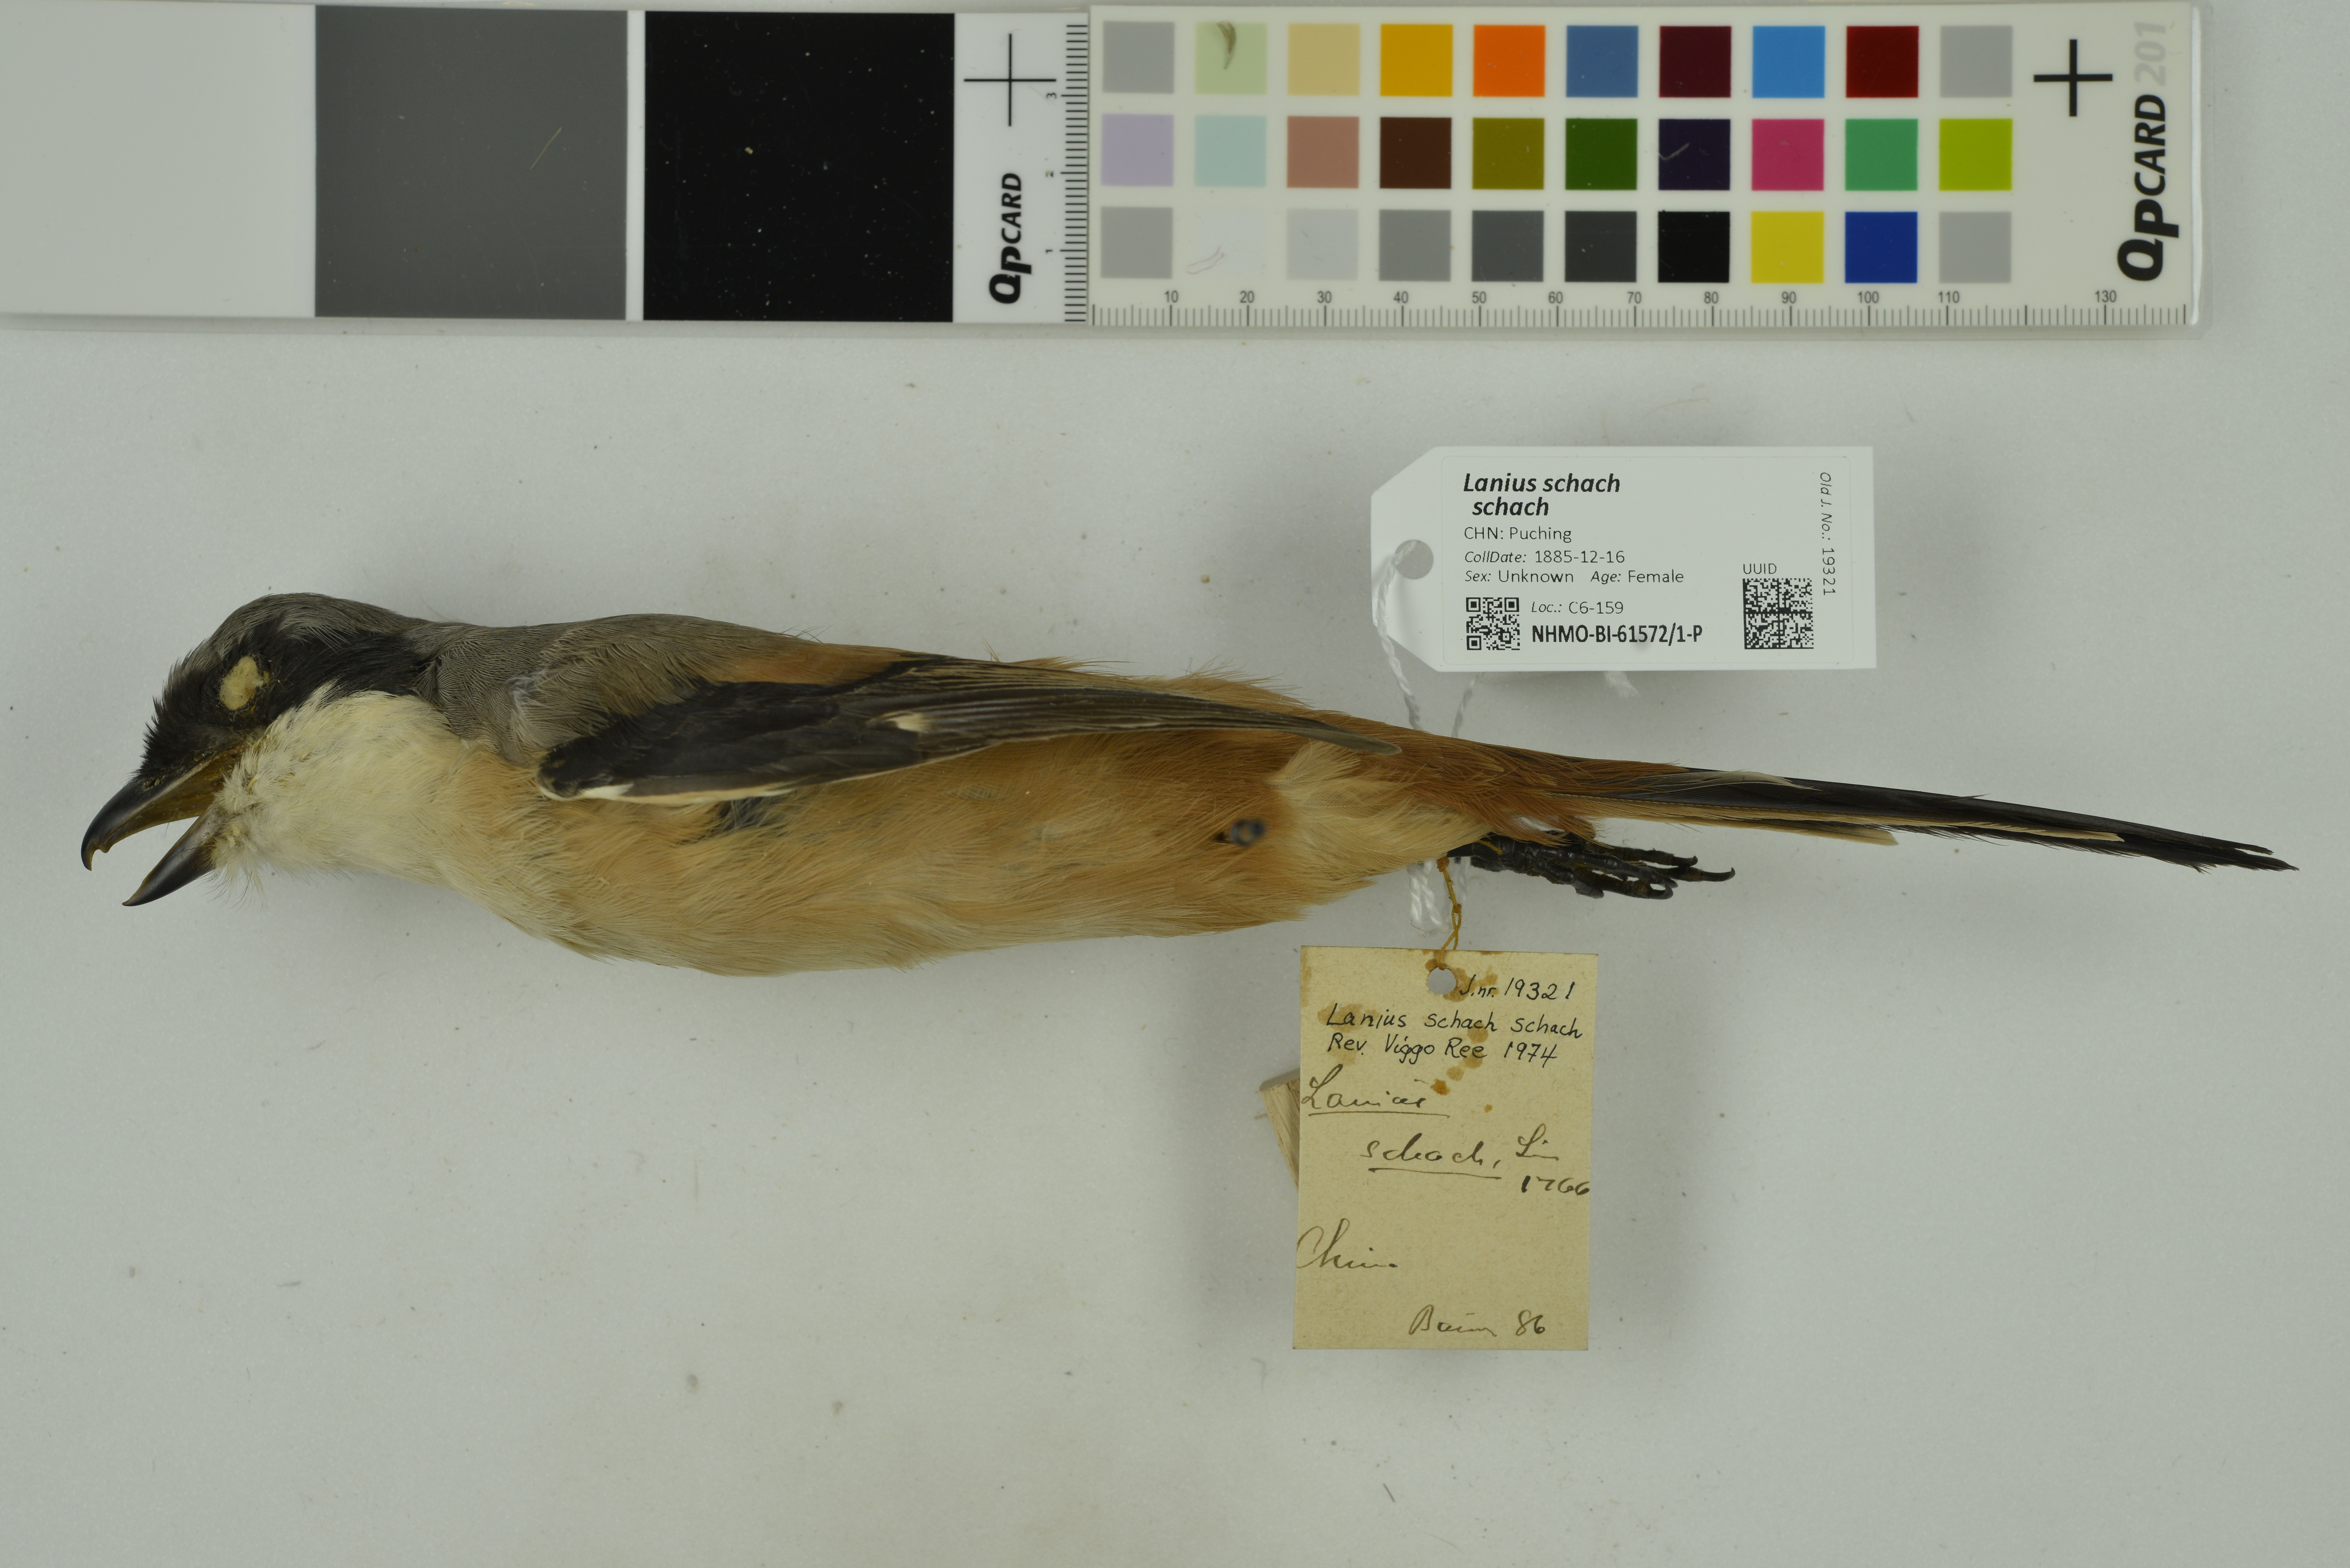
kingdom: Animalia
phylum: Chordata
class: Aves
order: Passeriformes
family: Laniidae
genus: Lanius
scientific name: Lanius schach
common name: Long-tailed shrike
